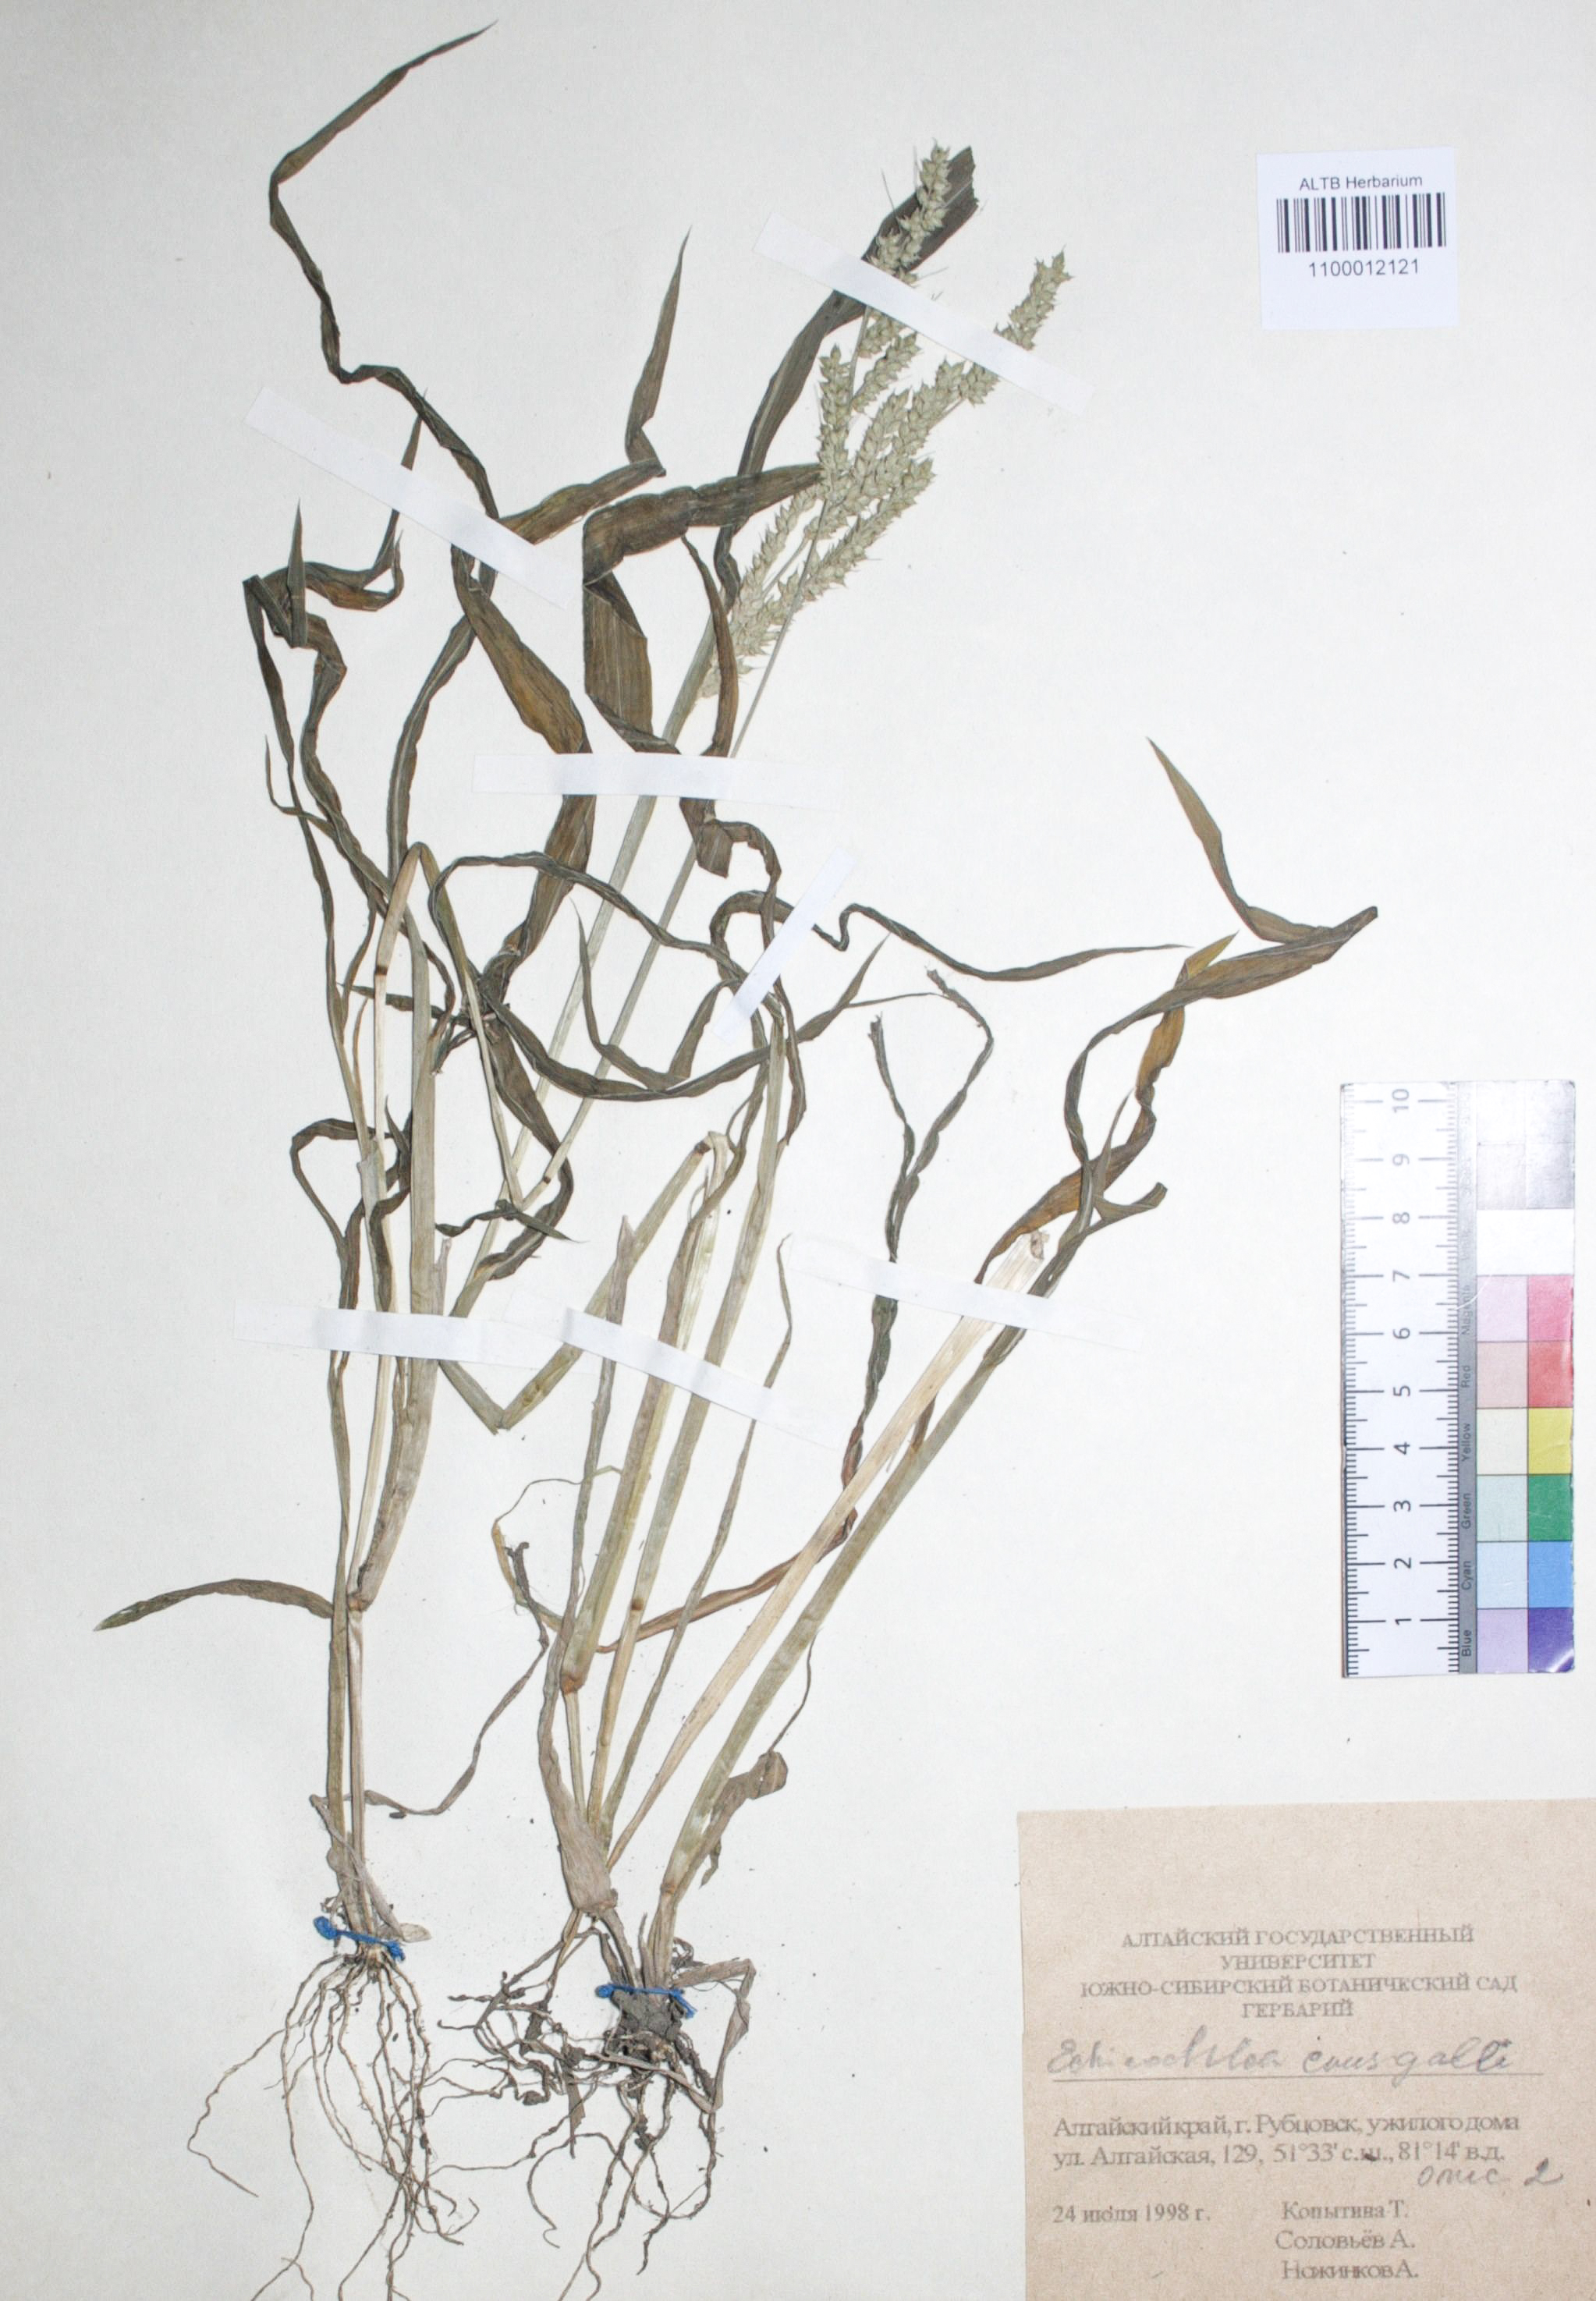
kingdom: Plantae
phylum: Tracheophyta
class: Liliopsida
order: Poales
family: Poaceae
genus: Echinochloa
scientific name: Echinochloa crus-galli
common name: Cockspur
